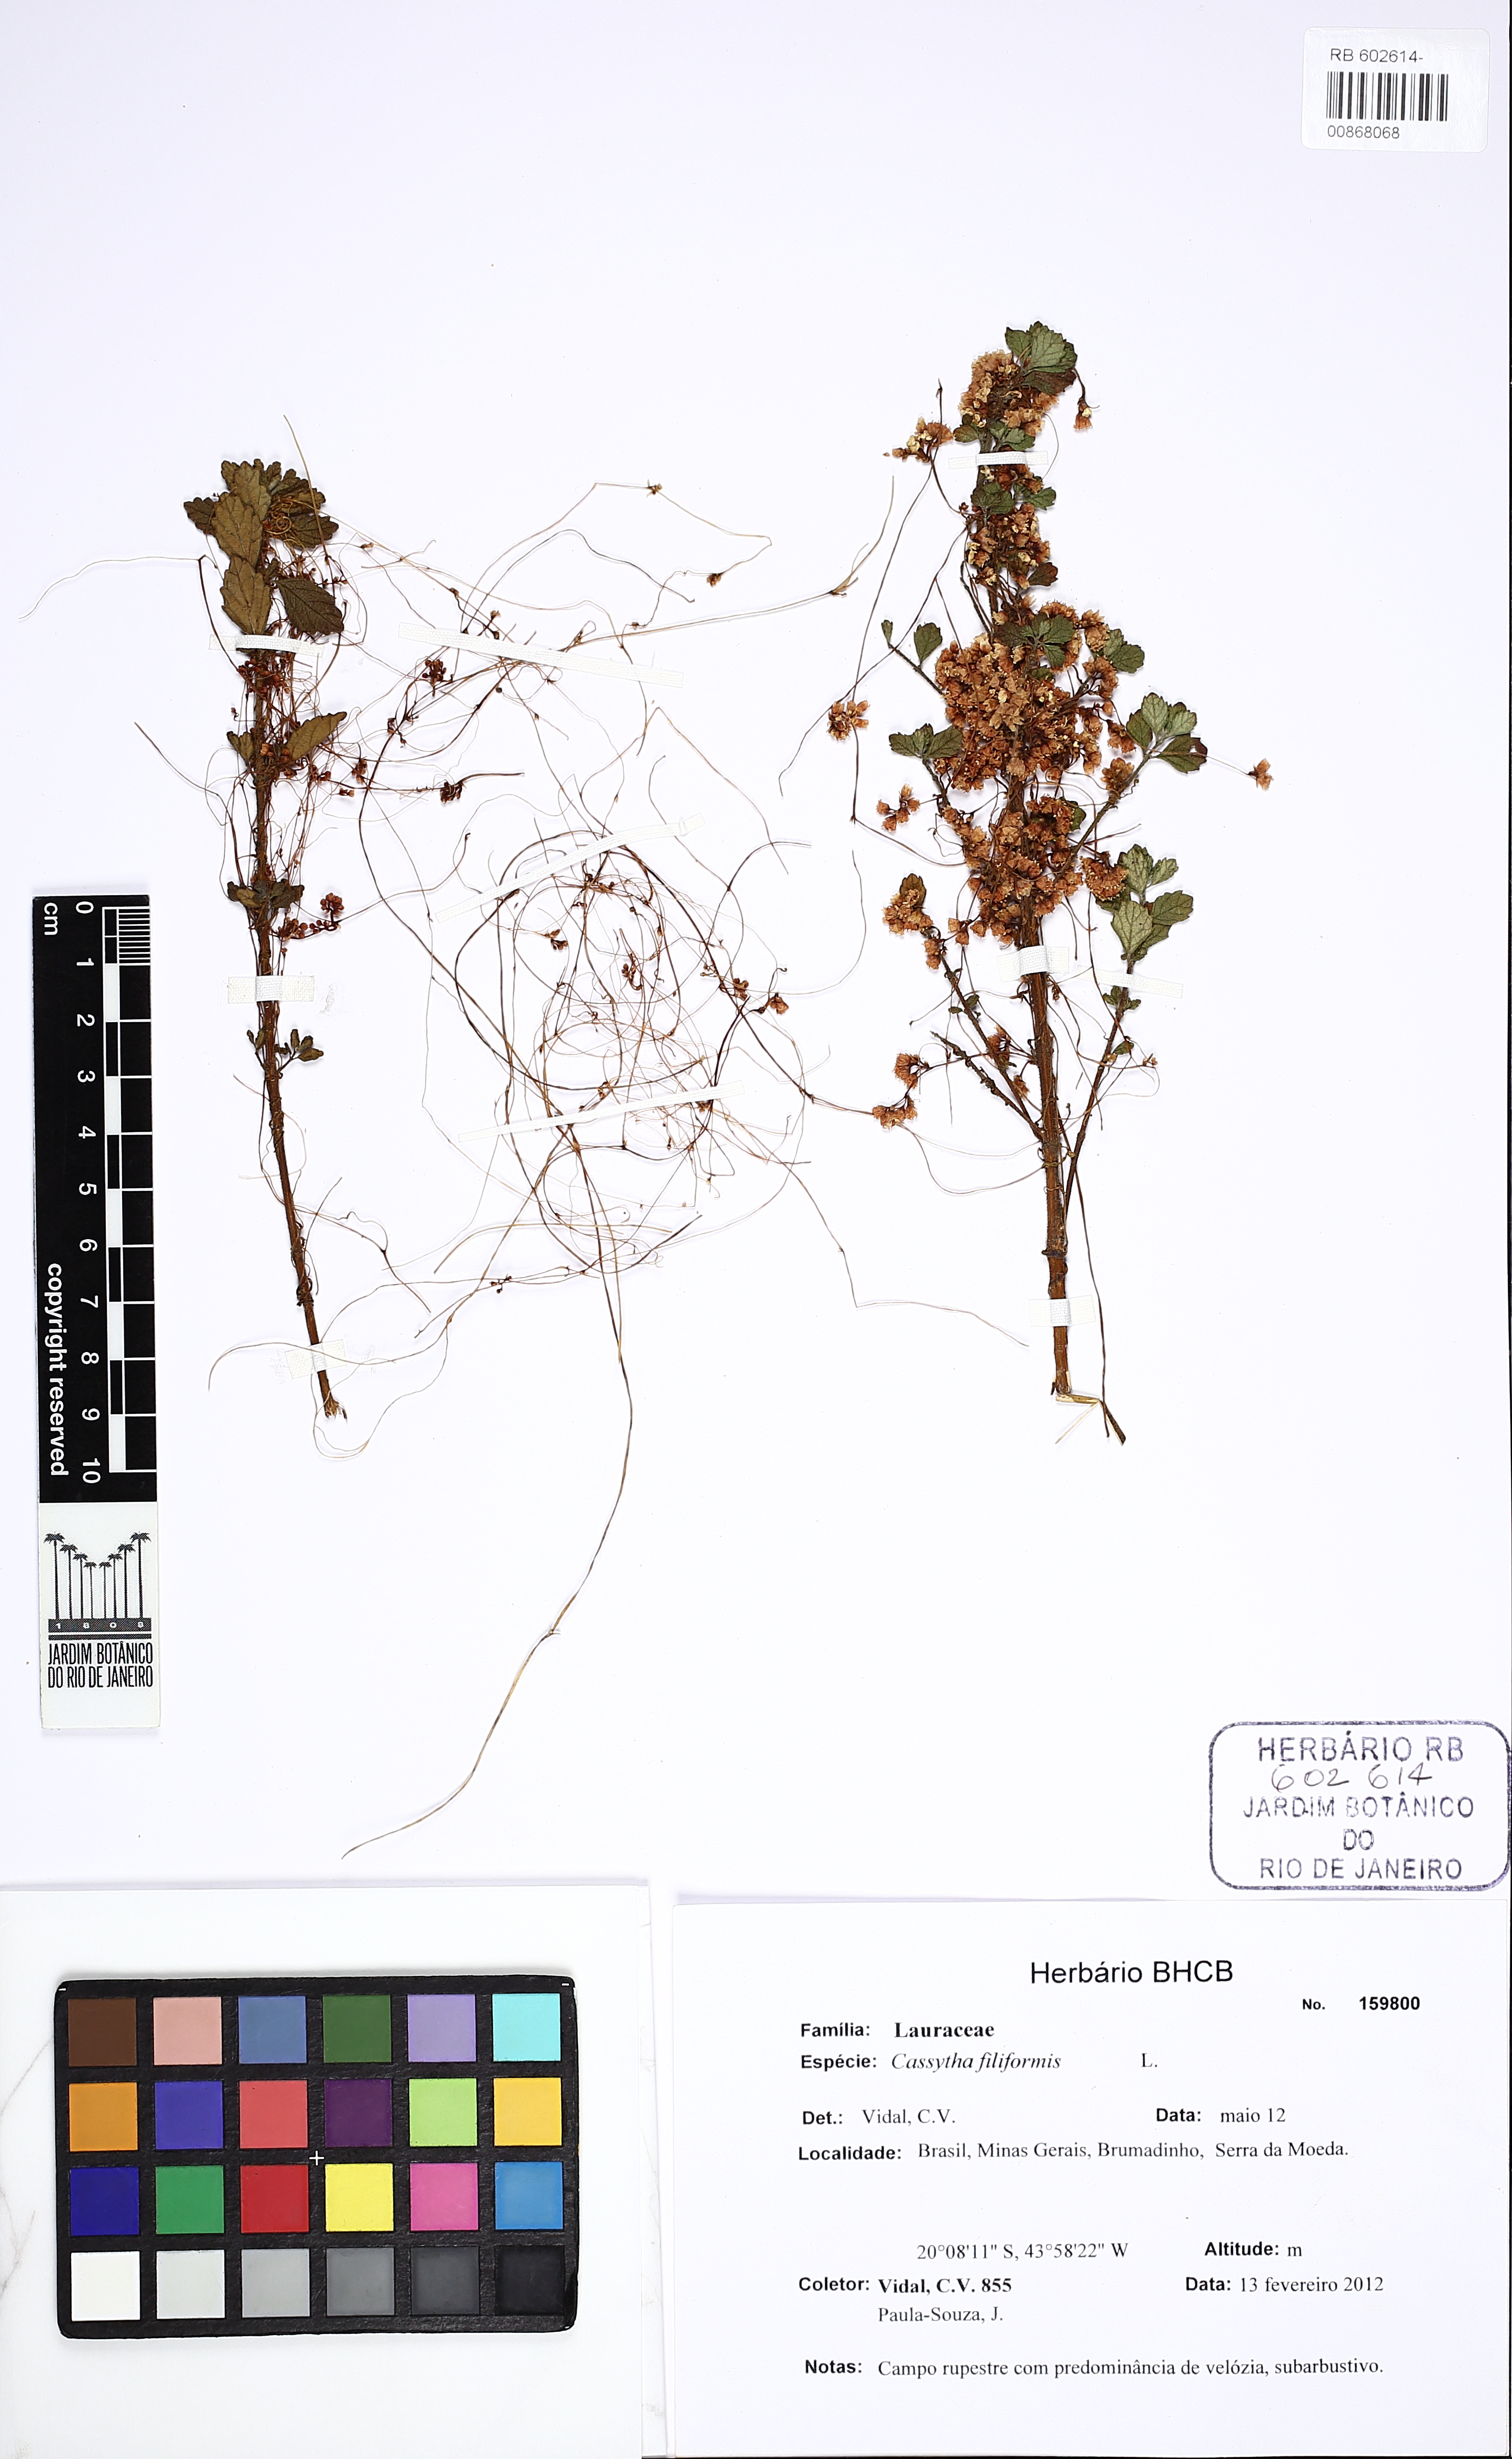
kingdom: Plantae
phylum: Tracheophyta
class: Magnoliopsida
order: Laurales
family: Lauraceae
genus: Cassytha
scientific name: Cassytha filiformis
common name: Dodder-laurel
